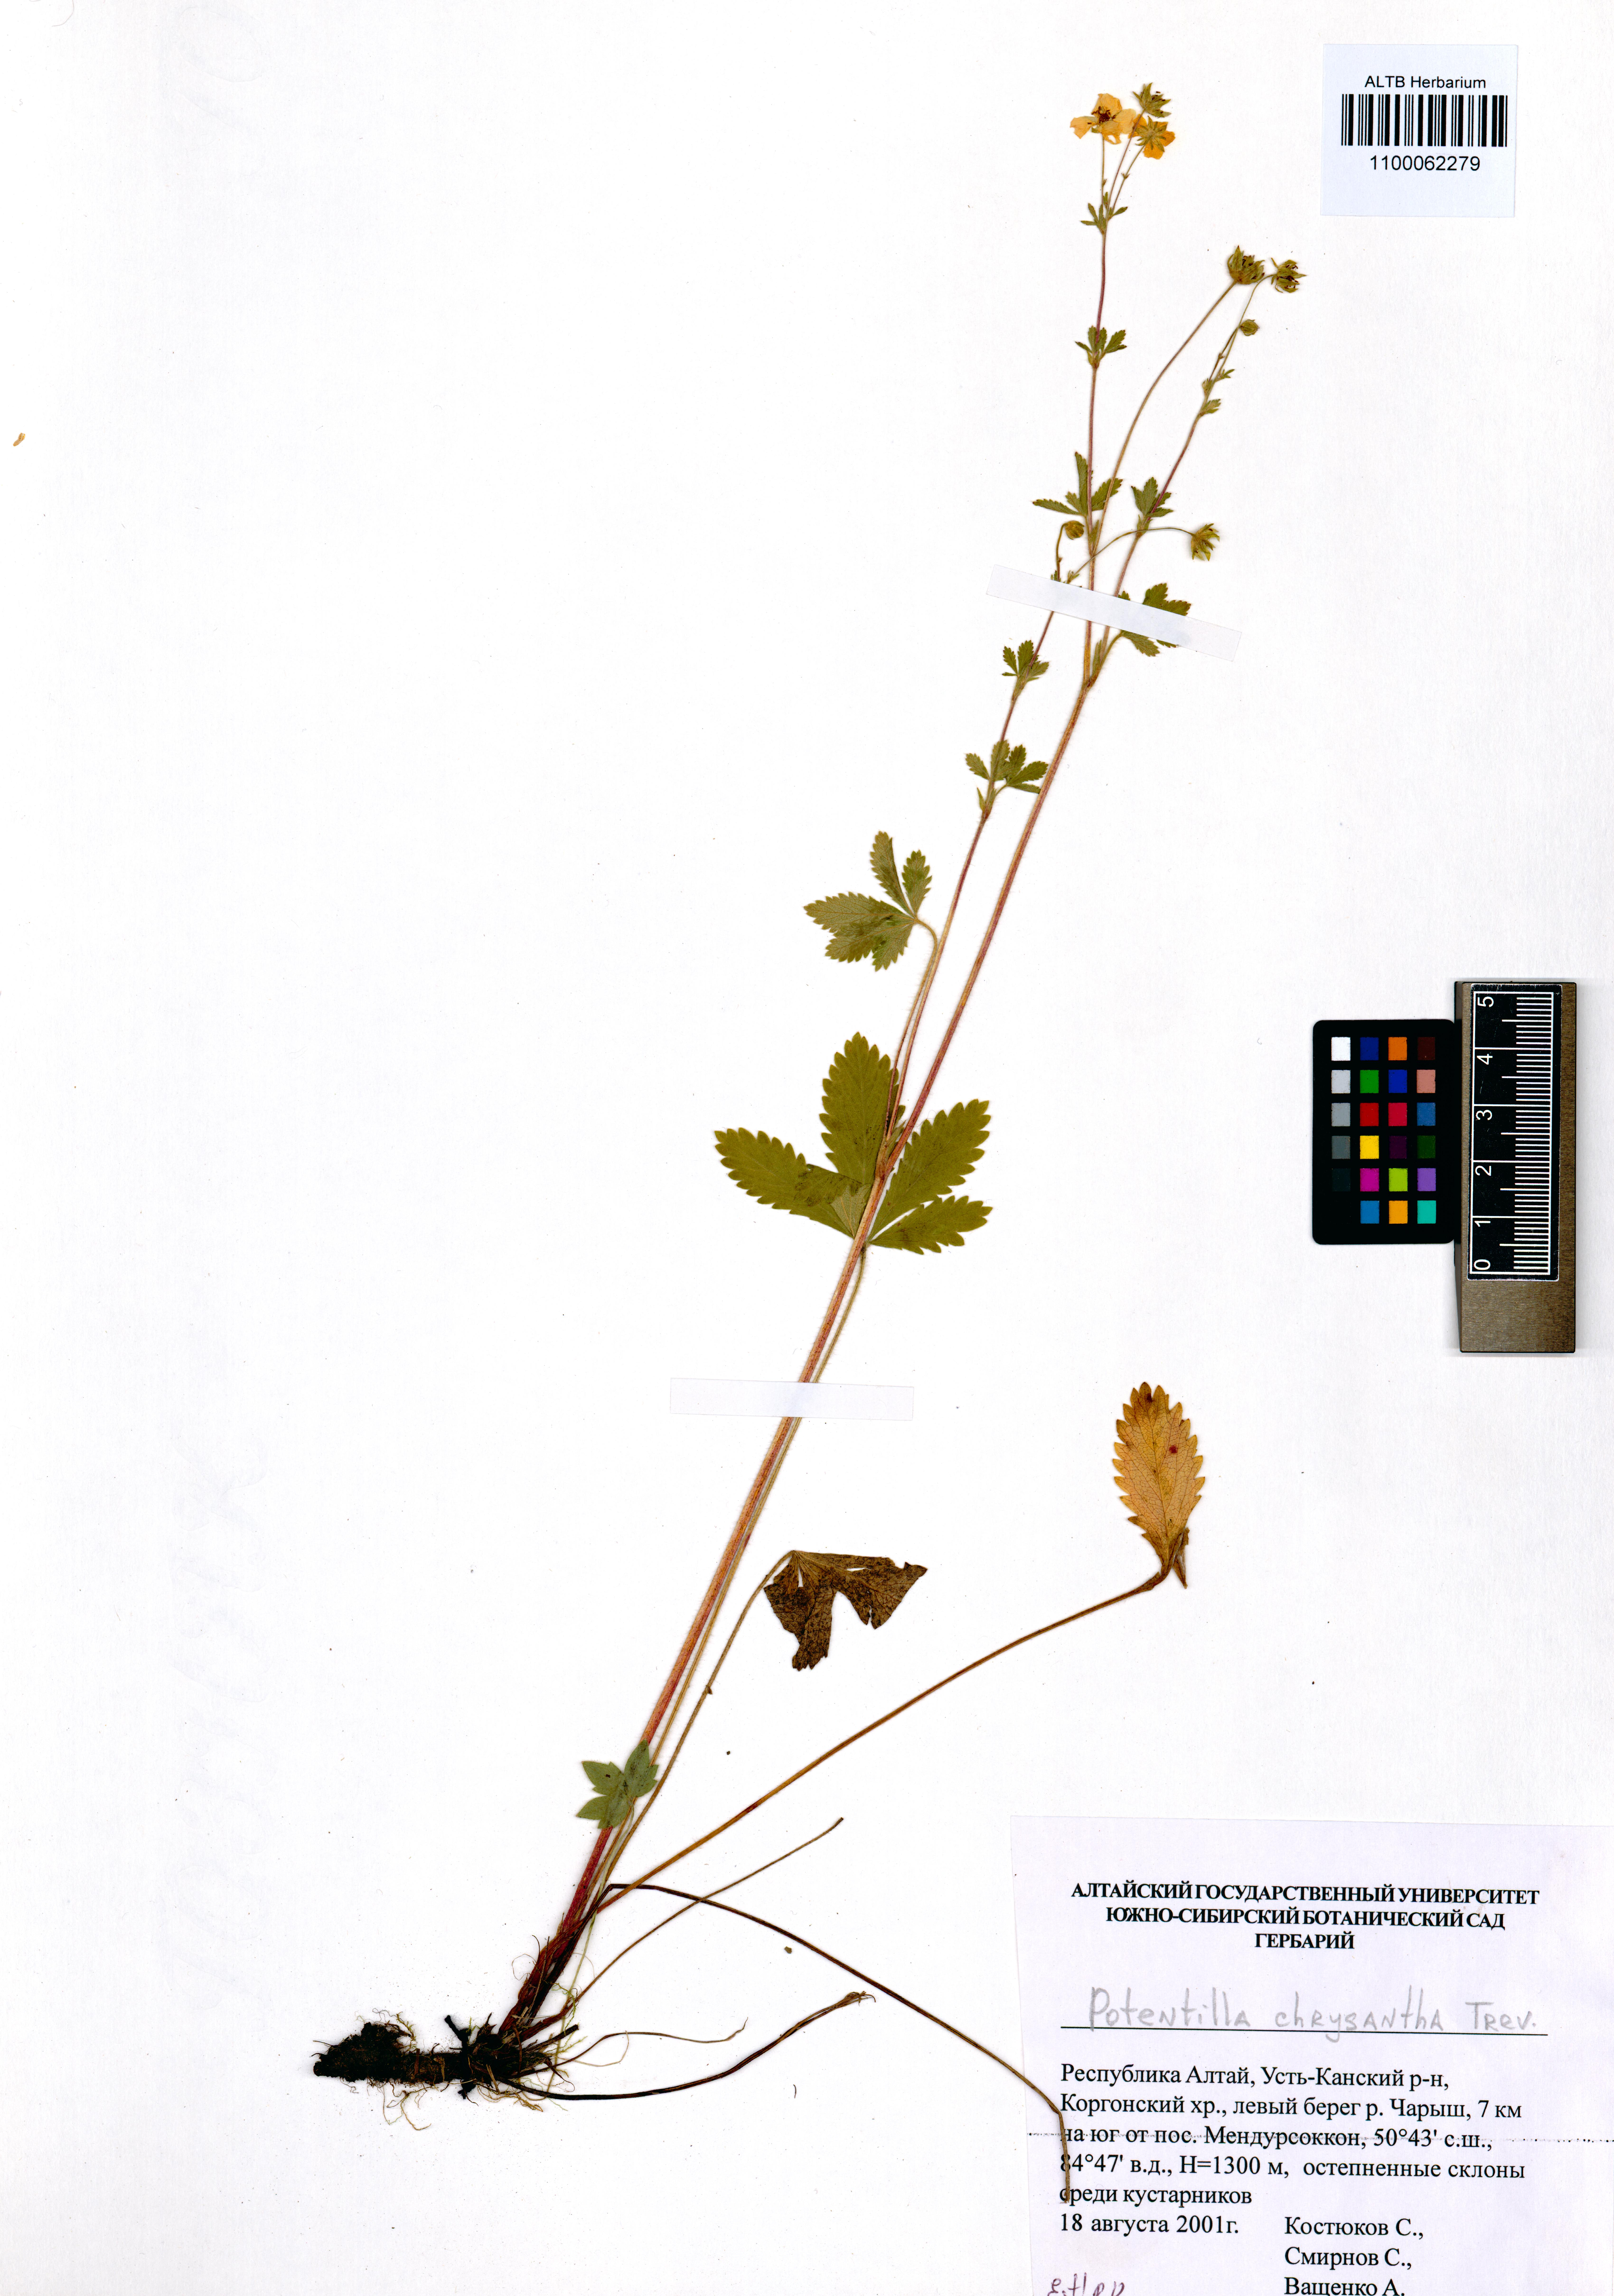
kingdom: Plantae
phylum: Tracheophyta
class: Magnoliopsida
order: Rosales
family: Rosaceae
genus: Potentilla
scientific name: Potentilla chrysantha
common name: Thuringian cinquefoil
